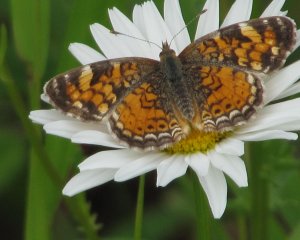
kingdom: Animalia
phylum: Arthropoda
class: Insecta
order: Lepidoptera
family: Nymphalidae
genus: Phyciodes
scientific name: Phyciodes tharos
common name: Northern Crescent
